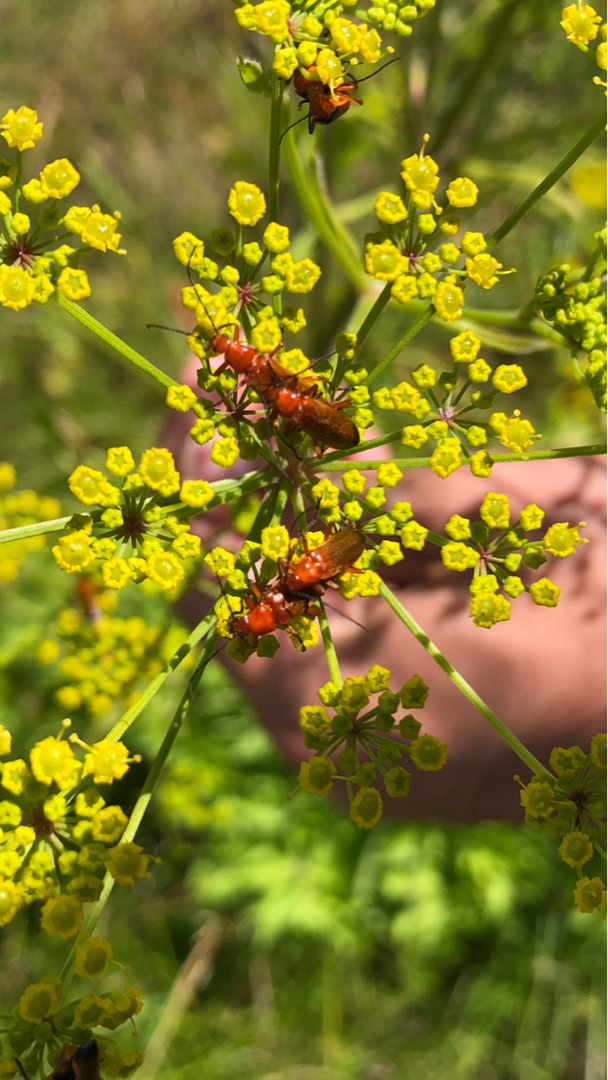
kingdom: Animalia
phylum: Arthropoda
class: Insecta
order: Coleoptera
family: Cantharidae
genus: Rhagonycha
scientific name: Rhagonycha fulva
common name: Præstebille
